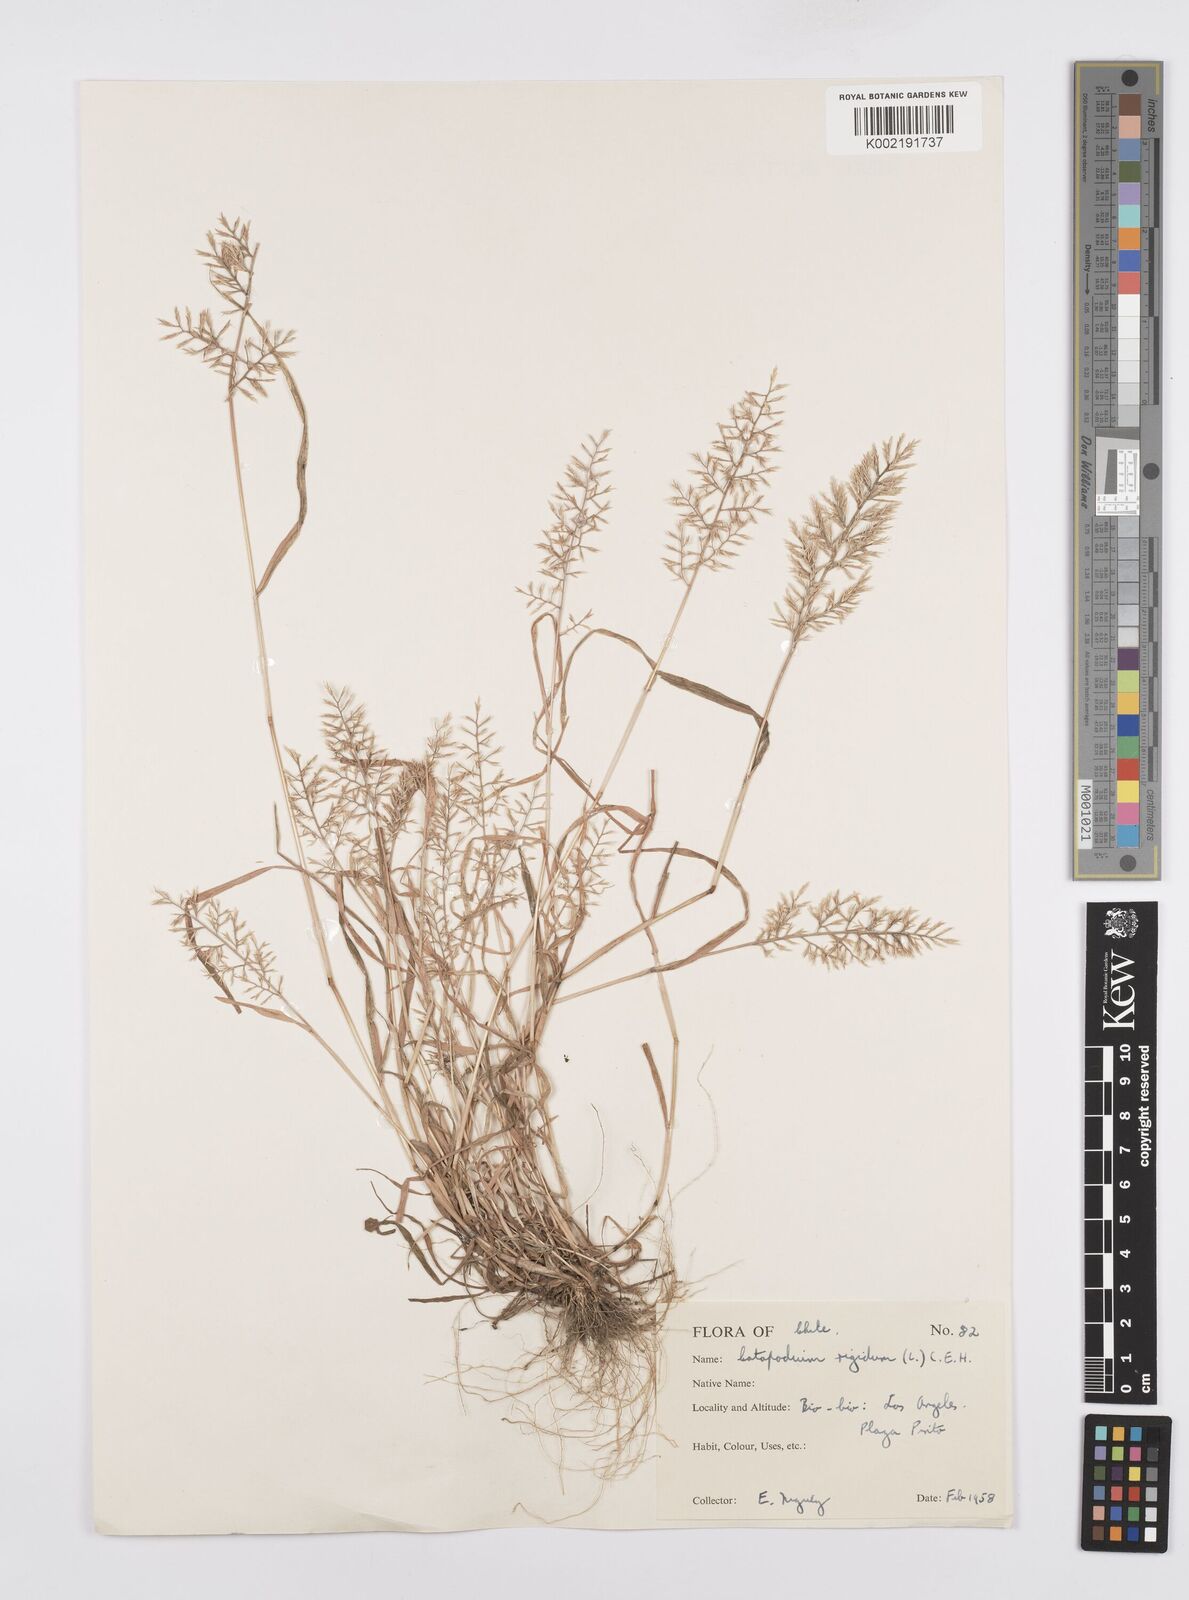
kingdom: Plantae
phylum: Tracheophyta
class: Liliopsida
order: Poales
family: Poaceae
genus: Catapodium
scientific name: Catapodium rigidum
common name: Fern-grass
